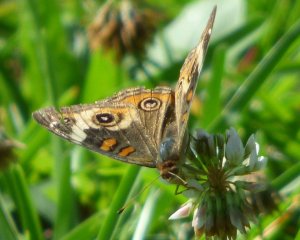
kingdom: Animalia
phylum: Arthropoda
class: Insecta
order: Lepidoptera
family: Nymphalidae
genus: Junonia
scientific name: Junonia coenia
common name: Common Buckeye
